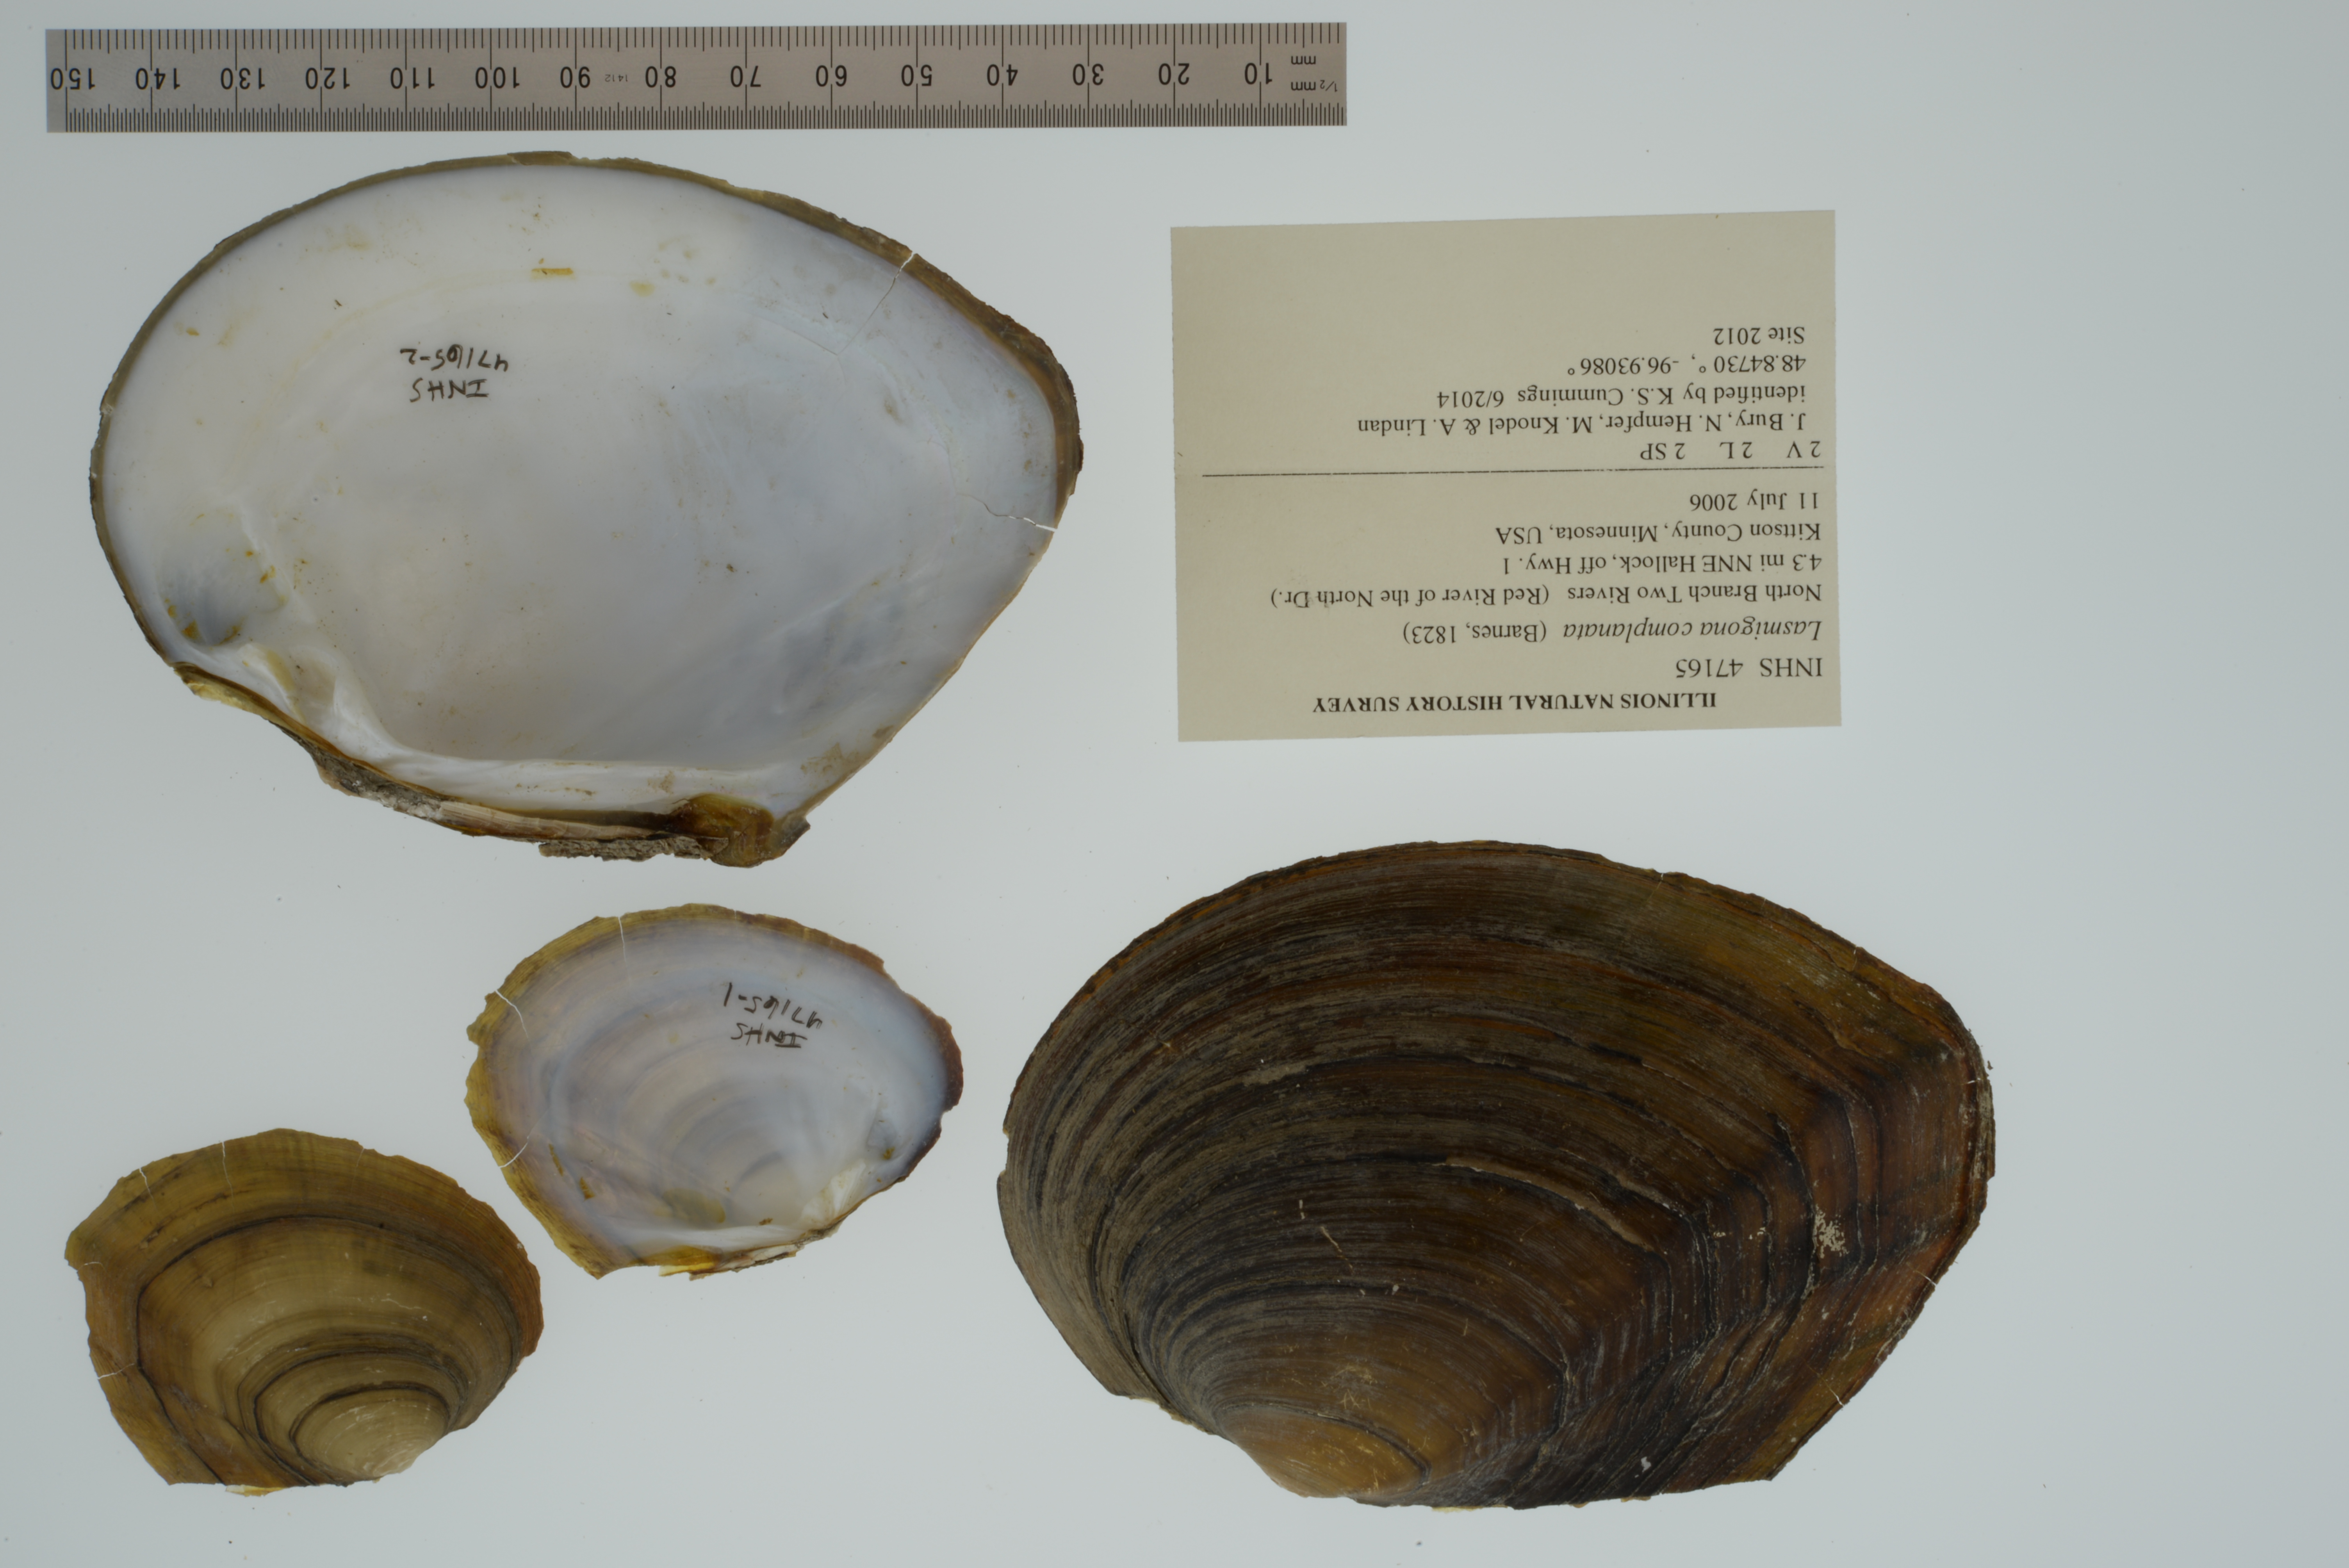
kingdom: Animalia
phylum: Mollusca
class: Bivalvia
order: Unionida
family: Unionidae
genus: Lasmigona
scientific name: Lasmigona complanata
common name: White heelsplitter
